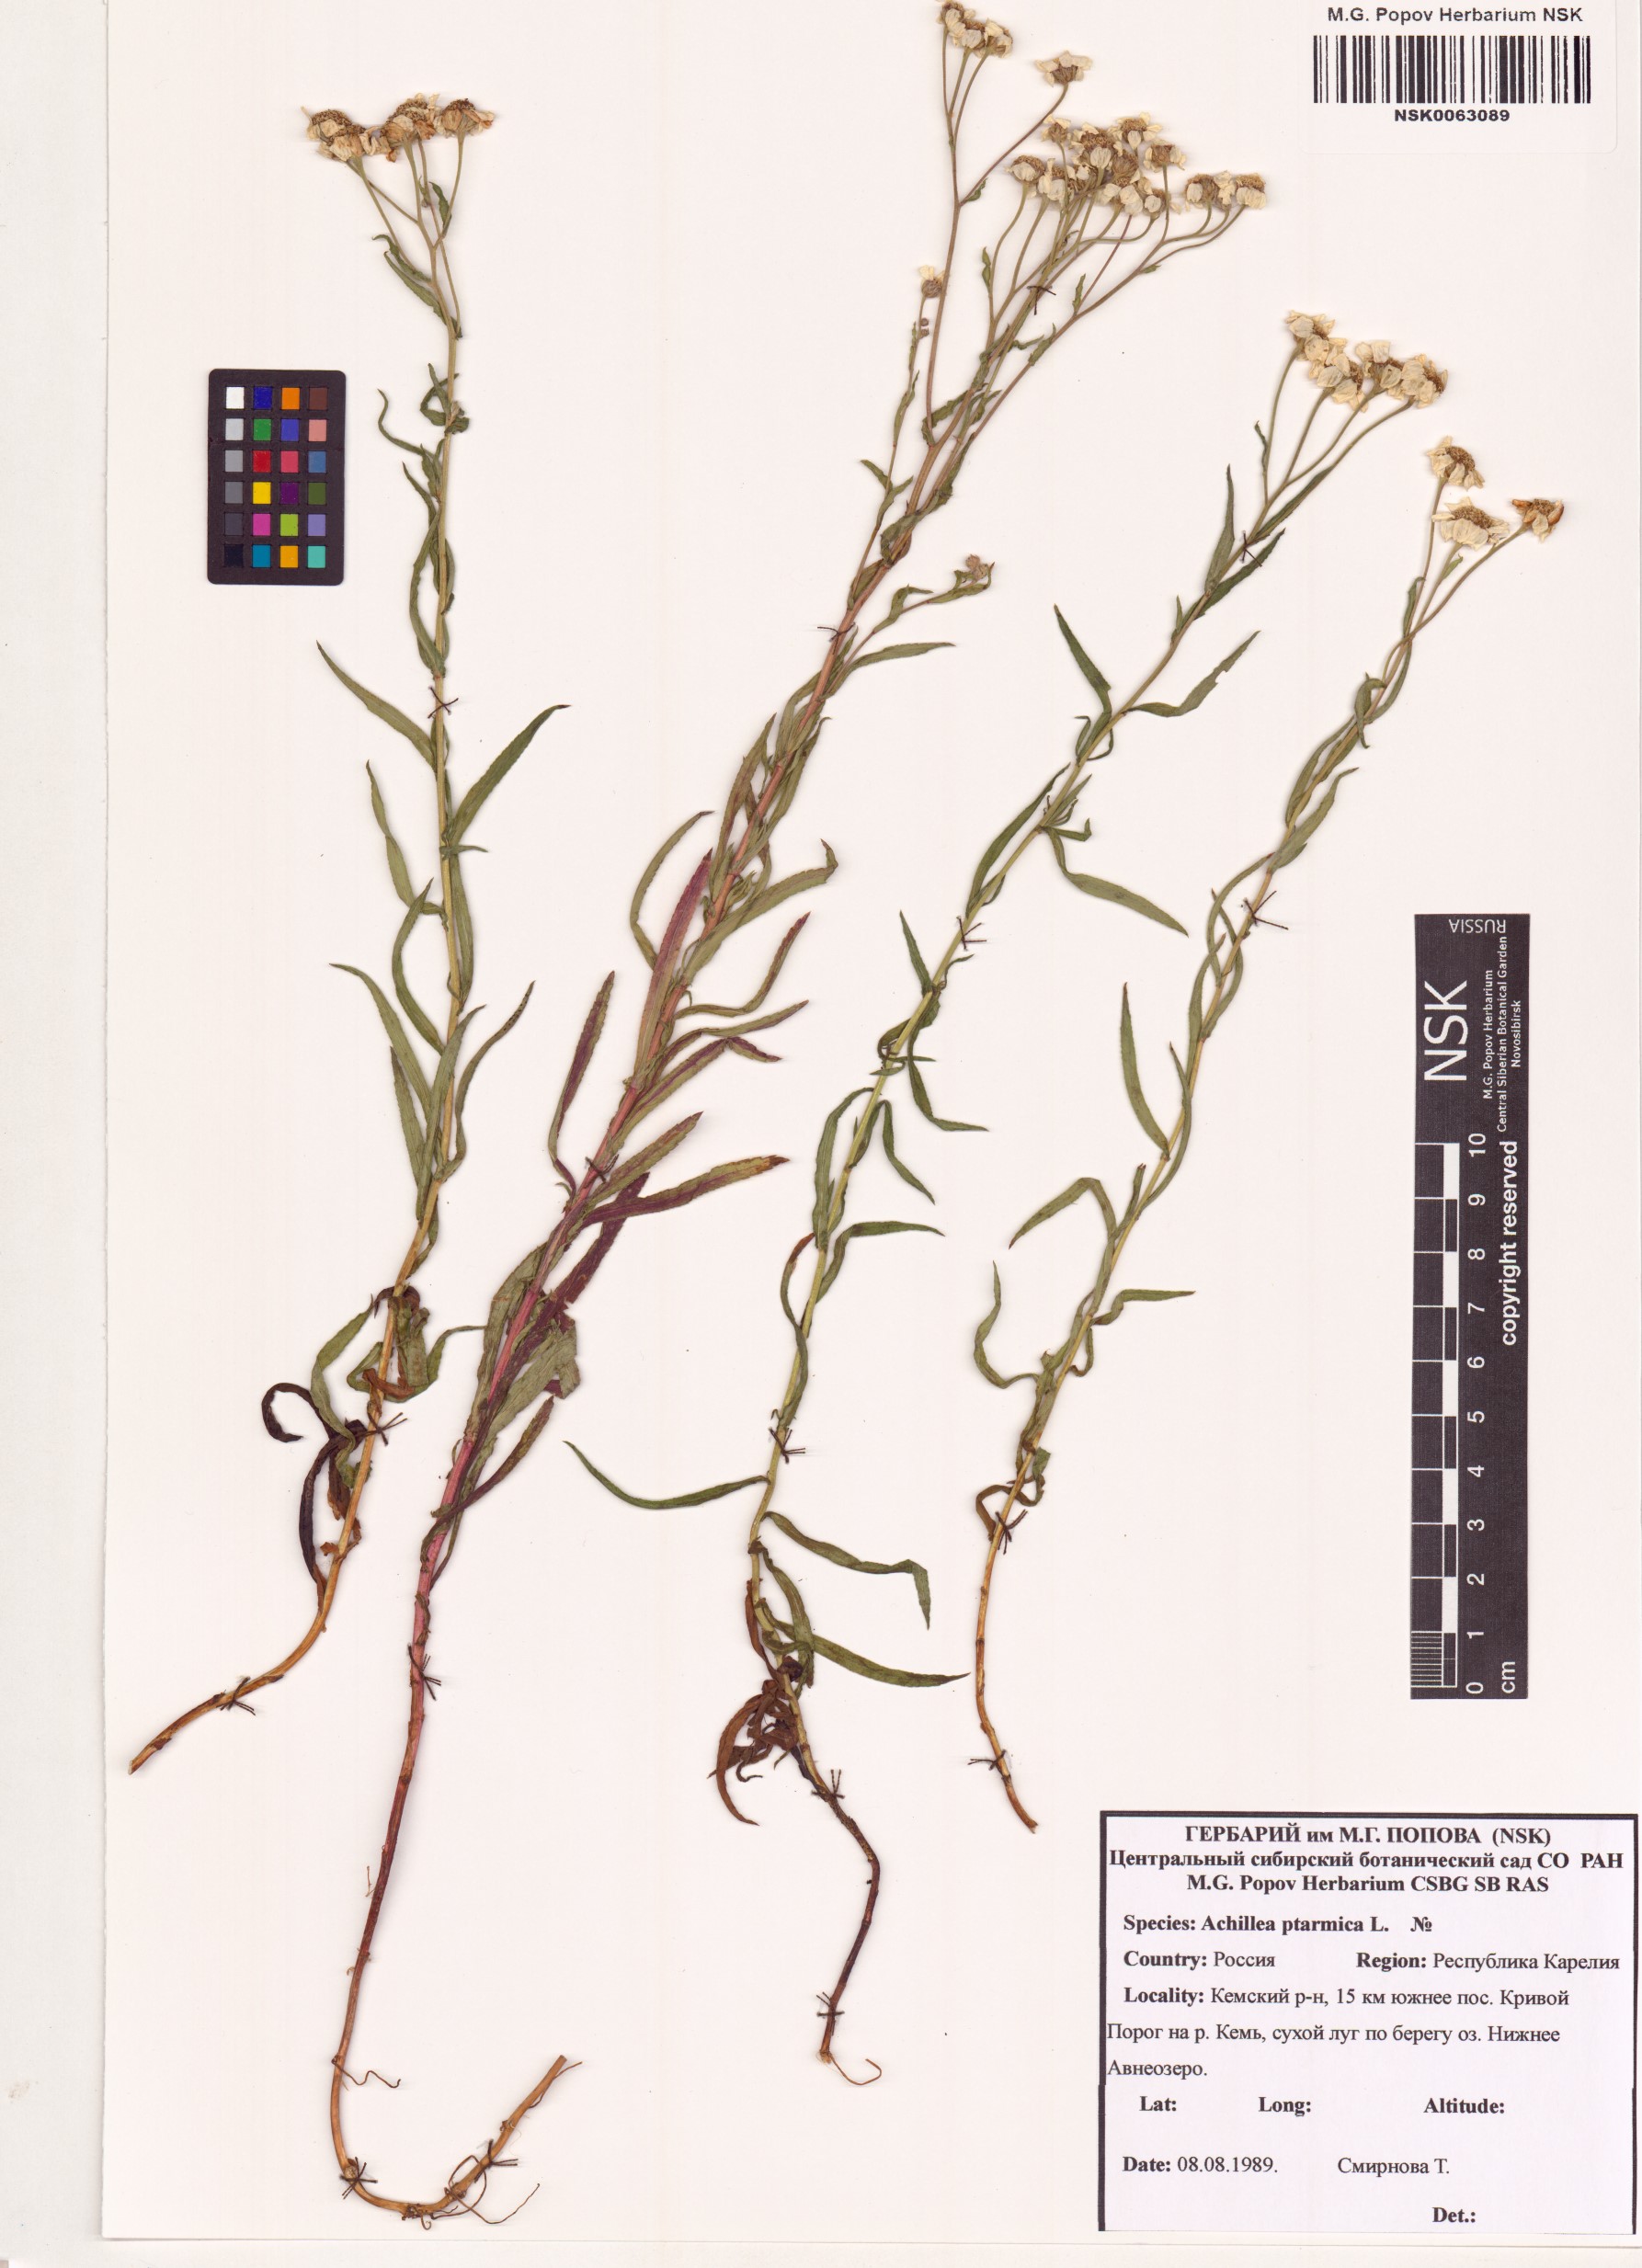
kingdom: Plantae
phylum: Tracheophyta
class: Magnoliopsida
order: Asterales
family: Asteraceae
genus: Achillea
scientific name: Achillea ptarmica
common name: Sneezeweed
